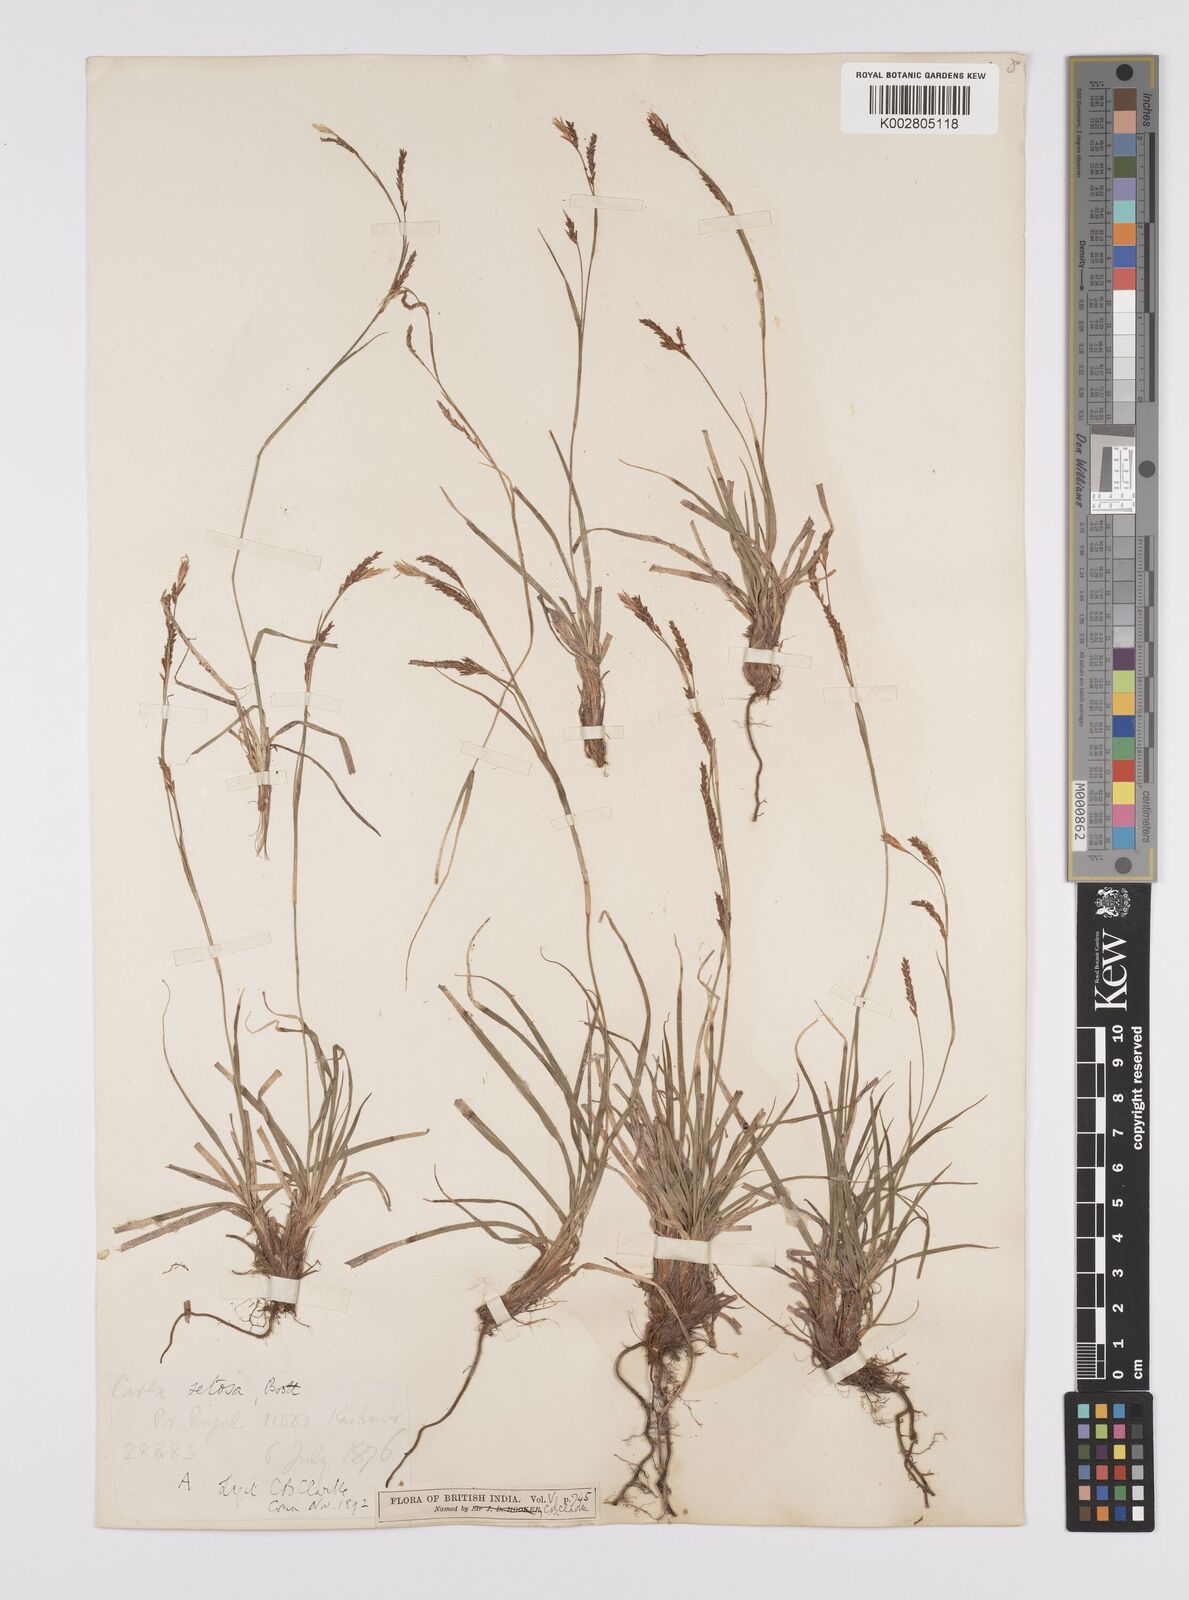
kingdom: Plantae
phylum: Tracheophyta
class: Liliopsida
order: Poales
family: Cyperaceae
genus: Carex
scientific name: Carex setosa
